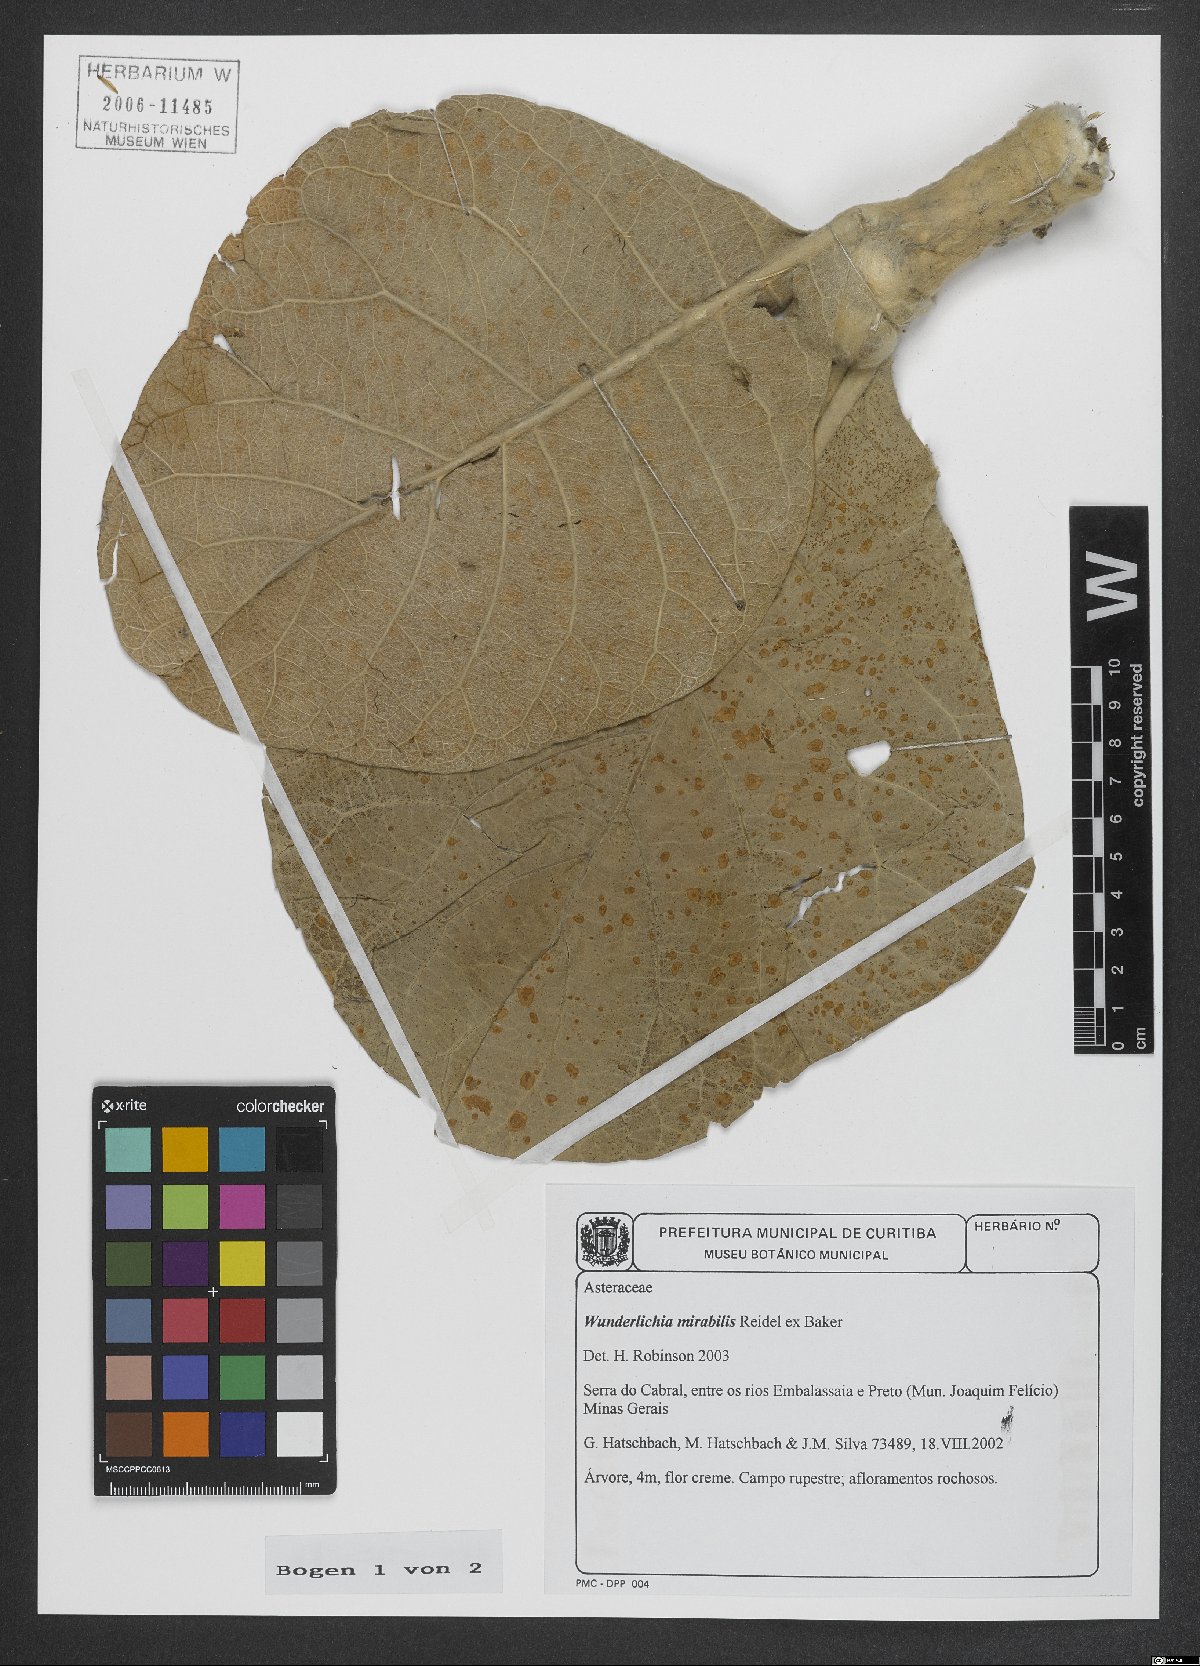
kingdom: Plantae
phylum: Tracheophyta
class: Magnoliopsida
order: Asterales
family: Asteraceae
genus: Wunderlichia
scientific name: Wunderlichia mirabilis
